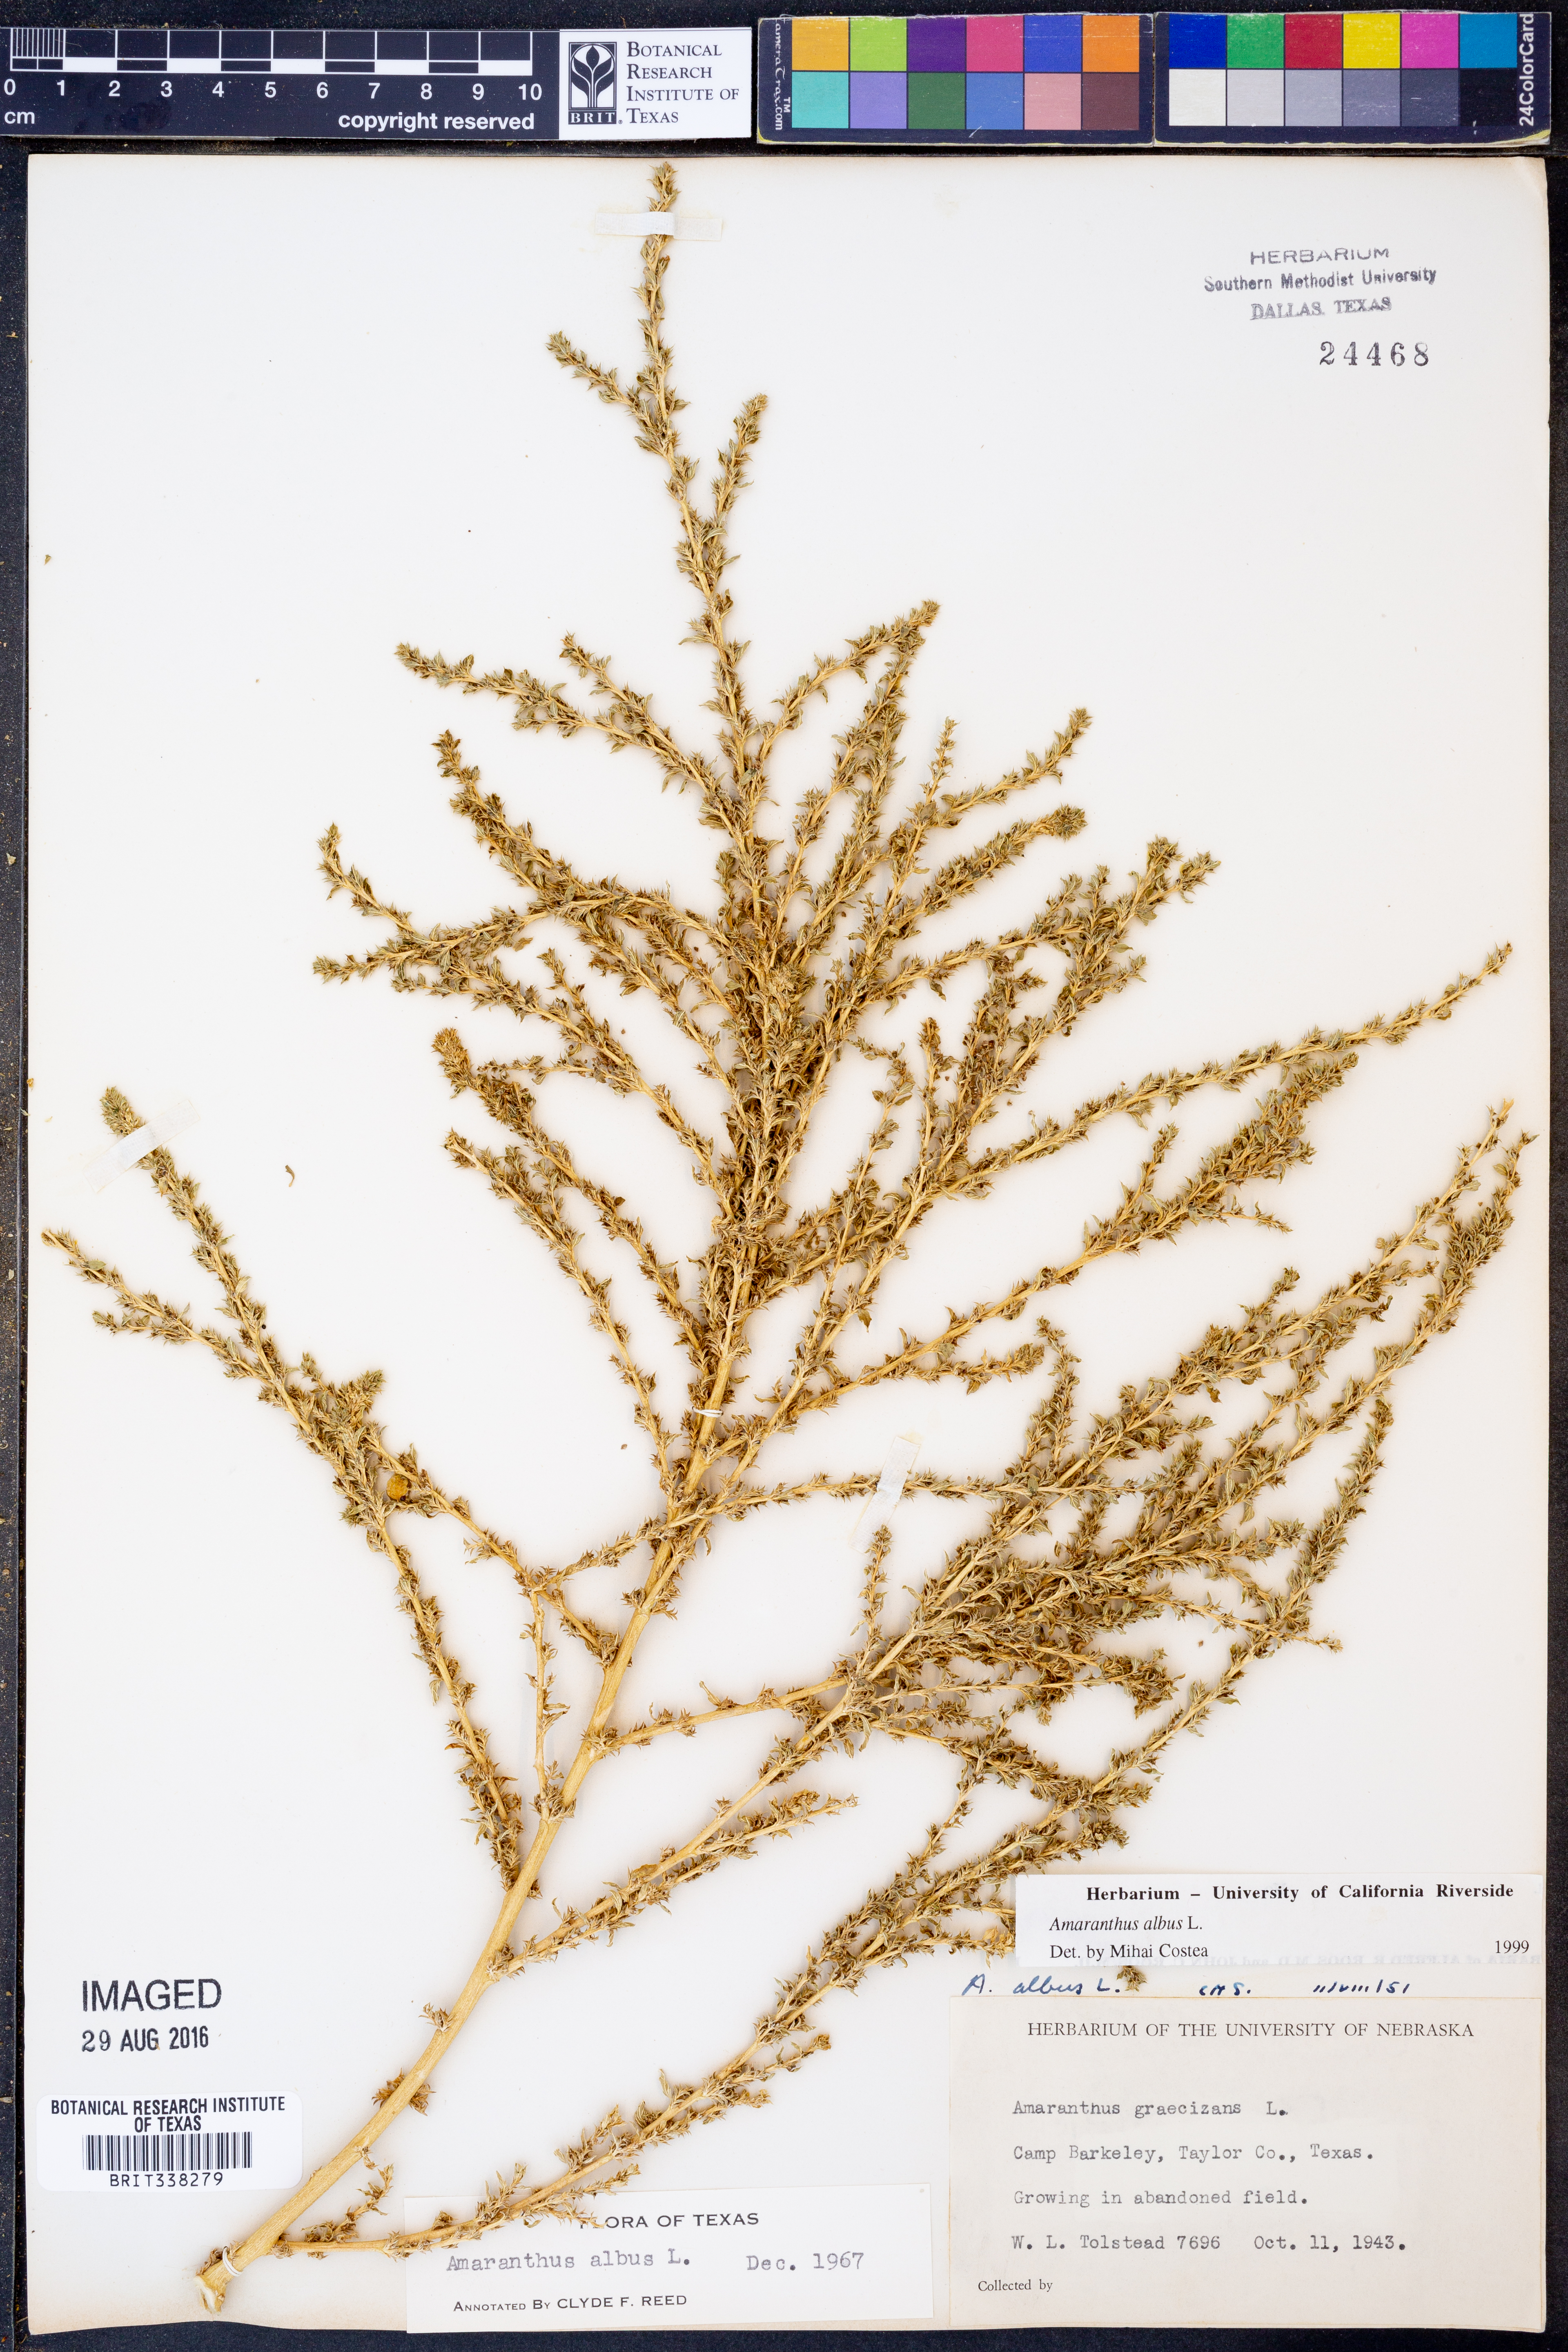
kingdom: Plantae
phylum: Tracheophyta
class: Magnoliopsida
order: Caryophyllales
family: Amaranthaceae
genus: Amaranthus
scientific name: Amaranthus albus
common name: White pigweed
